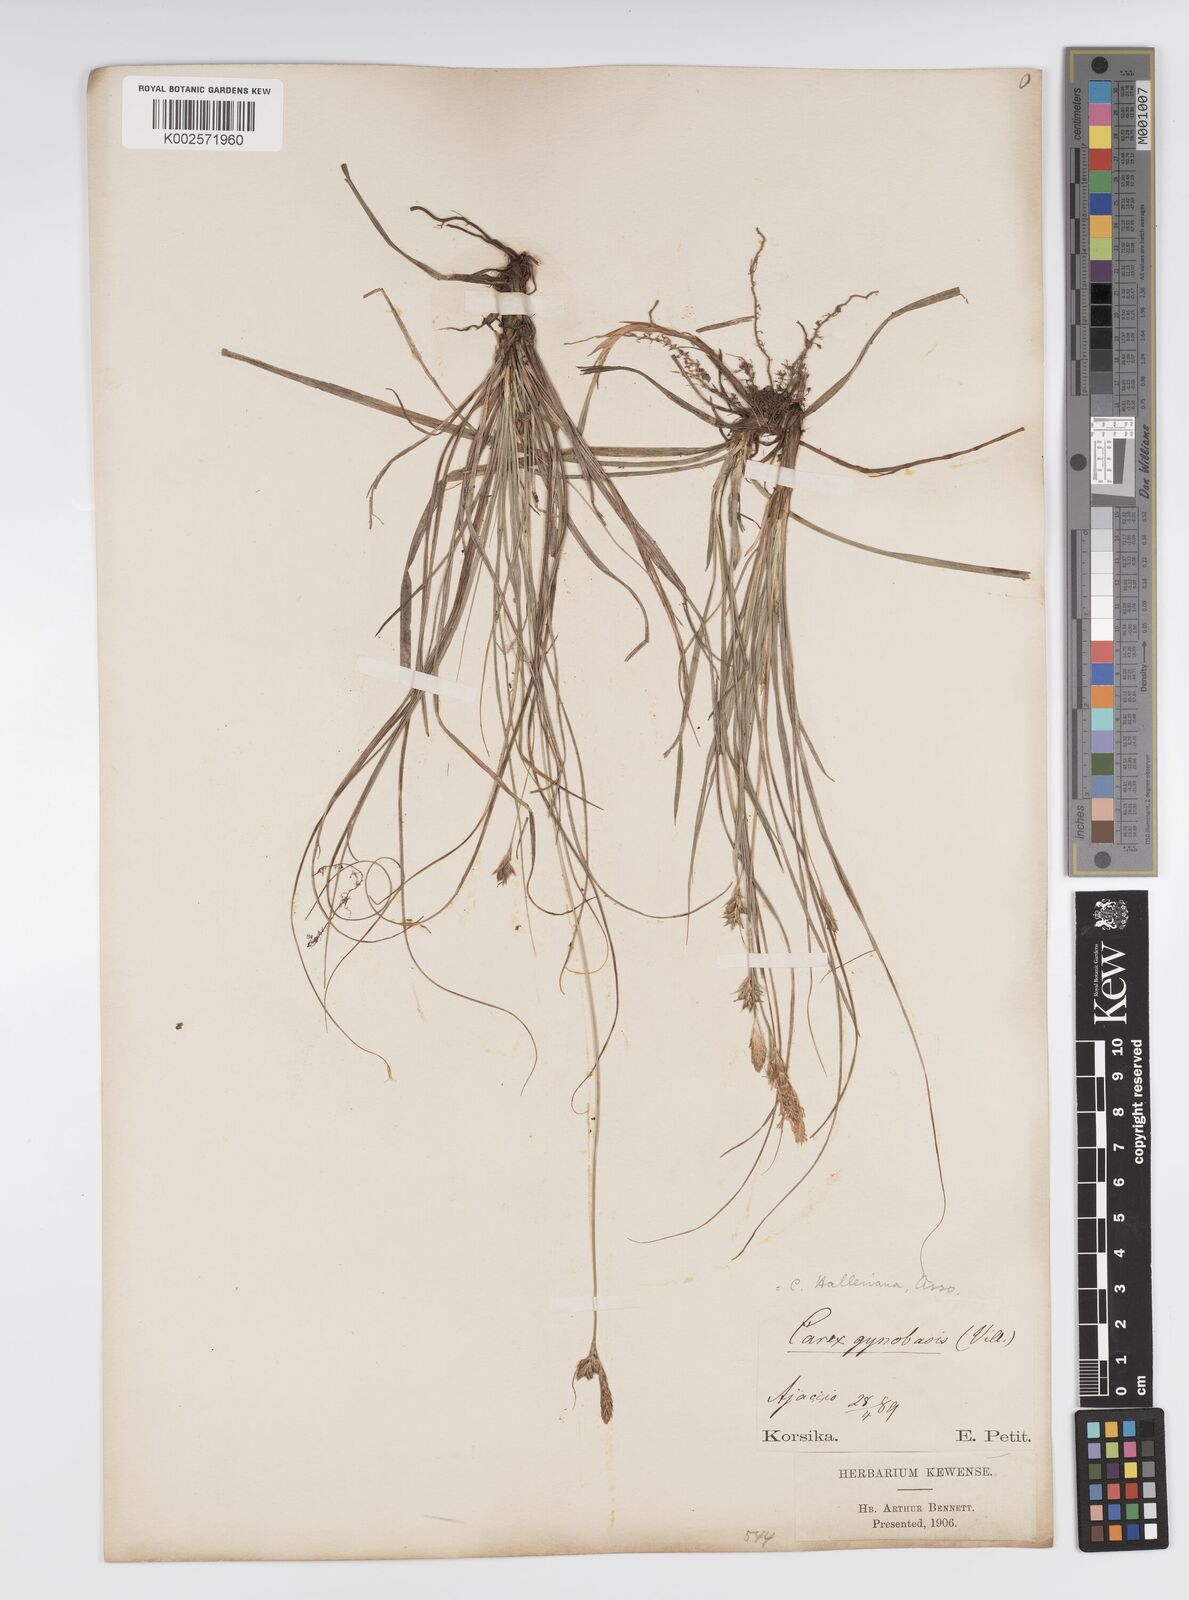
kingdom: Plantae
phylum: Tracheophyta
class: Liliopsida
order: Poales
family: Cyperaceae
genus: Carex
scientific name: Carex halleriana
